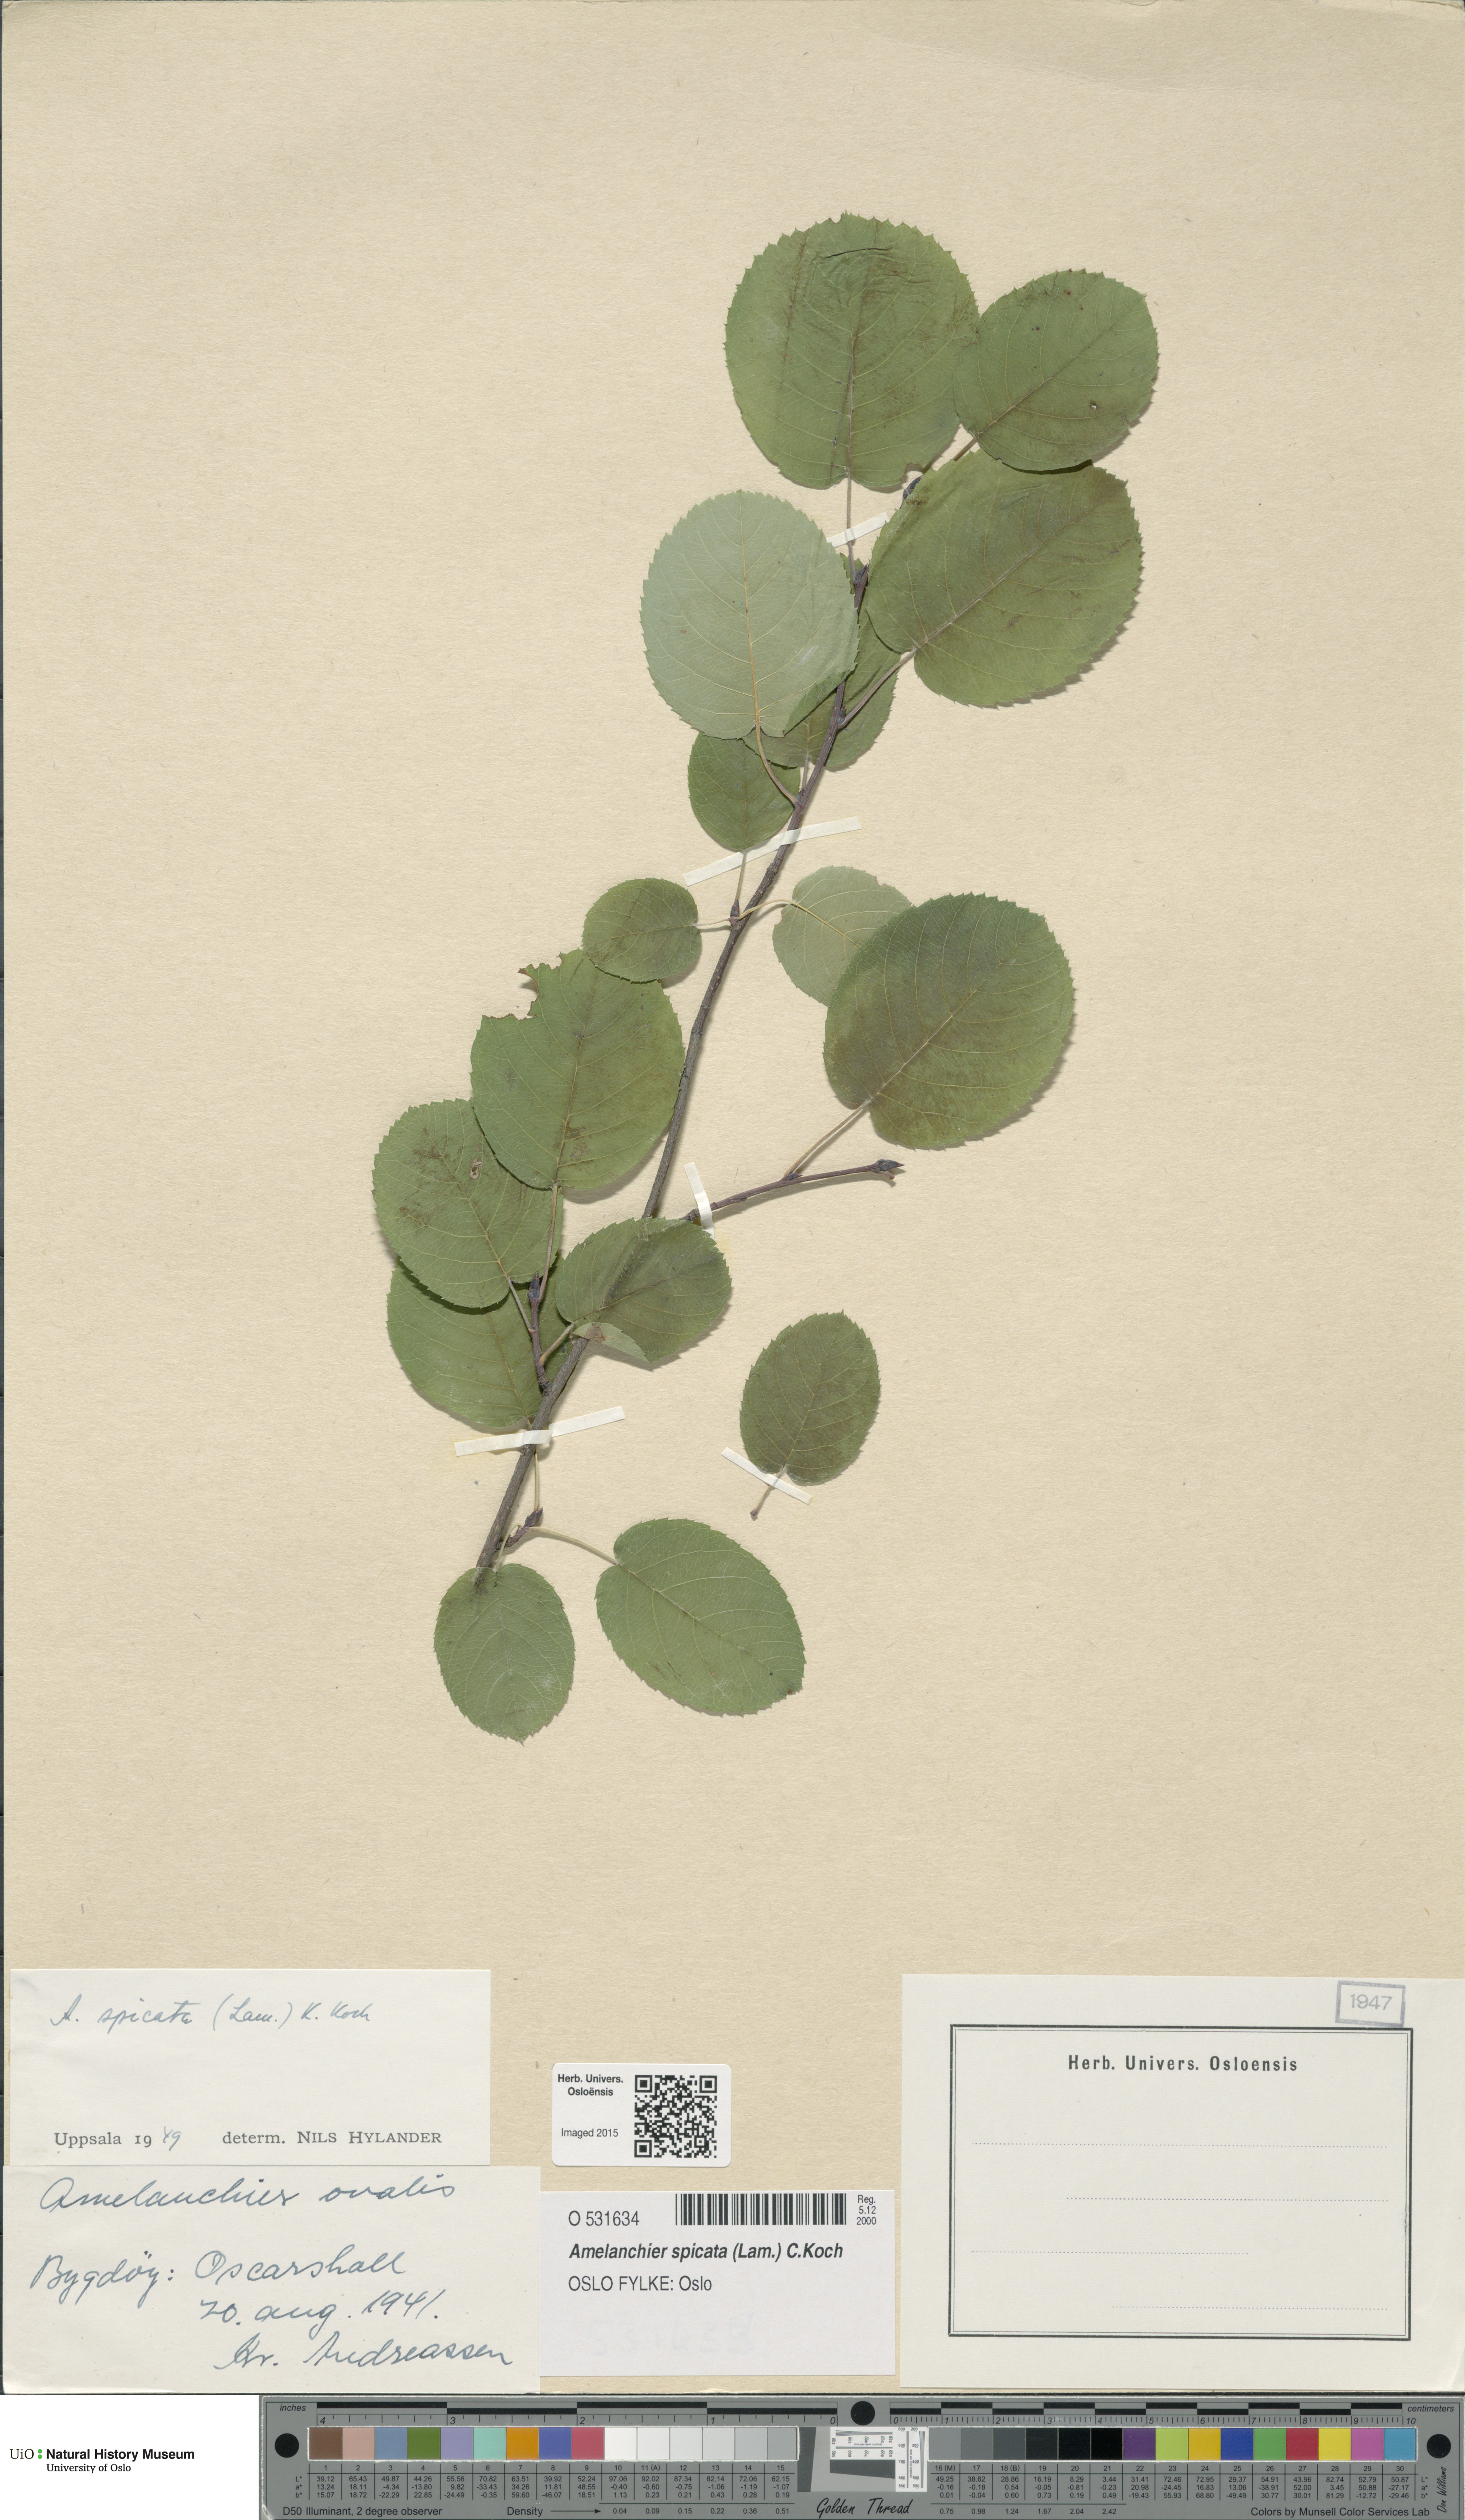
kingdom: Plantae
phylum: Tracheophyta
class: Magnoliopsida
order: Rosales
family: Rosaceae
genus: Amelanchier
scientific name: Amelanchier humilis
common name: Low juneberry
